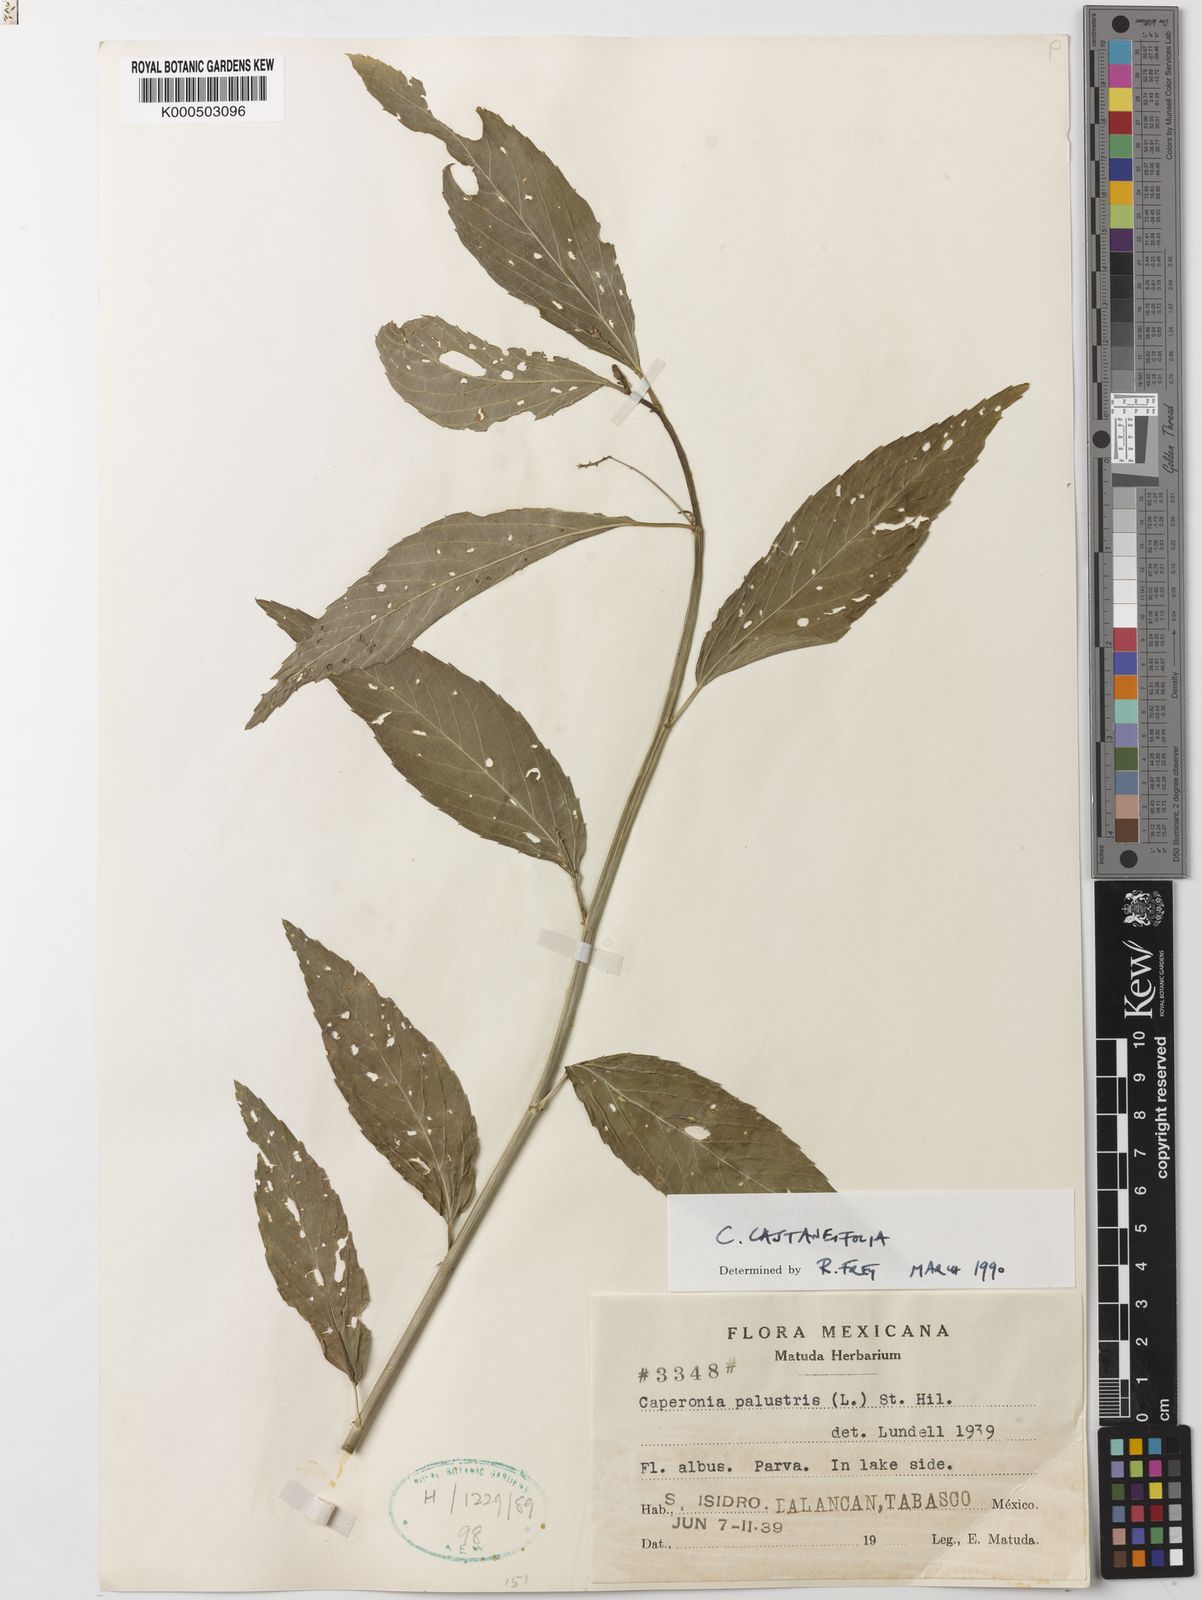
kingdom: Plantae
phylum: Tracheophyta
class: Magnoliopsida
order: Malpighiales
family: Euphorbiaceae
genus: Caperonia
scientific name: Caperonia castaneifolia
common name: Chestnutleaf false croton
